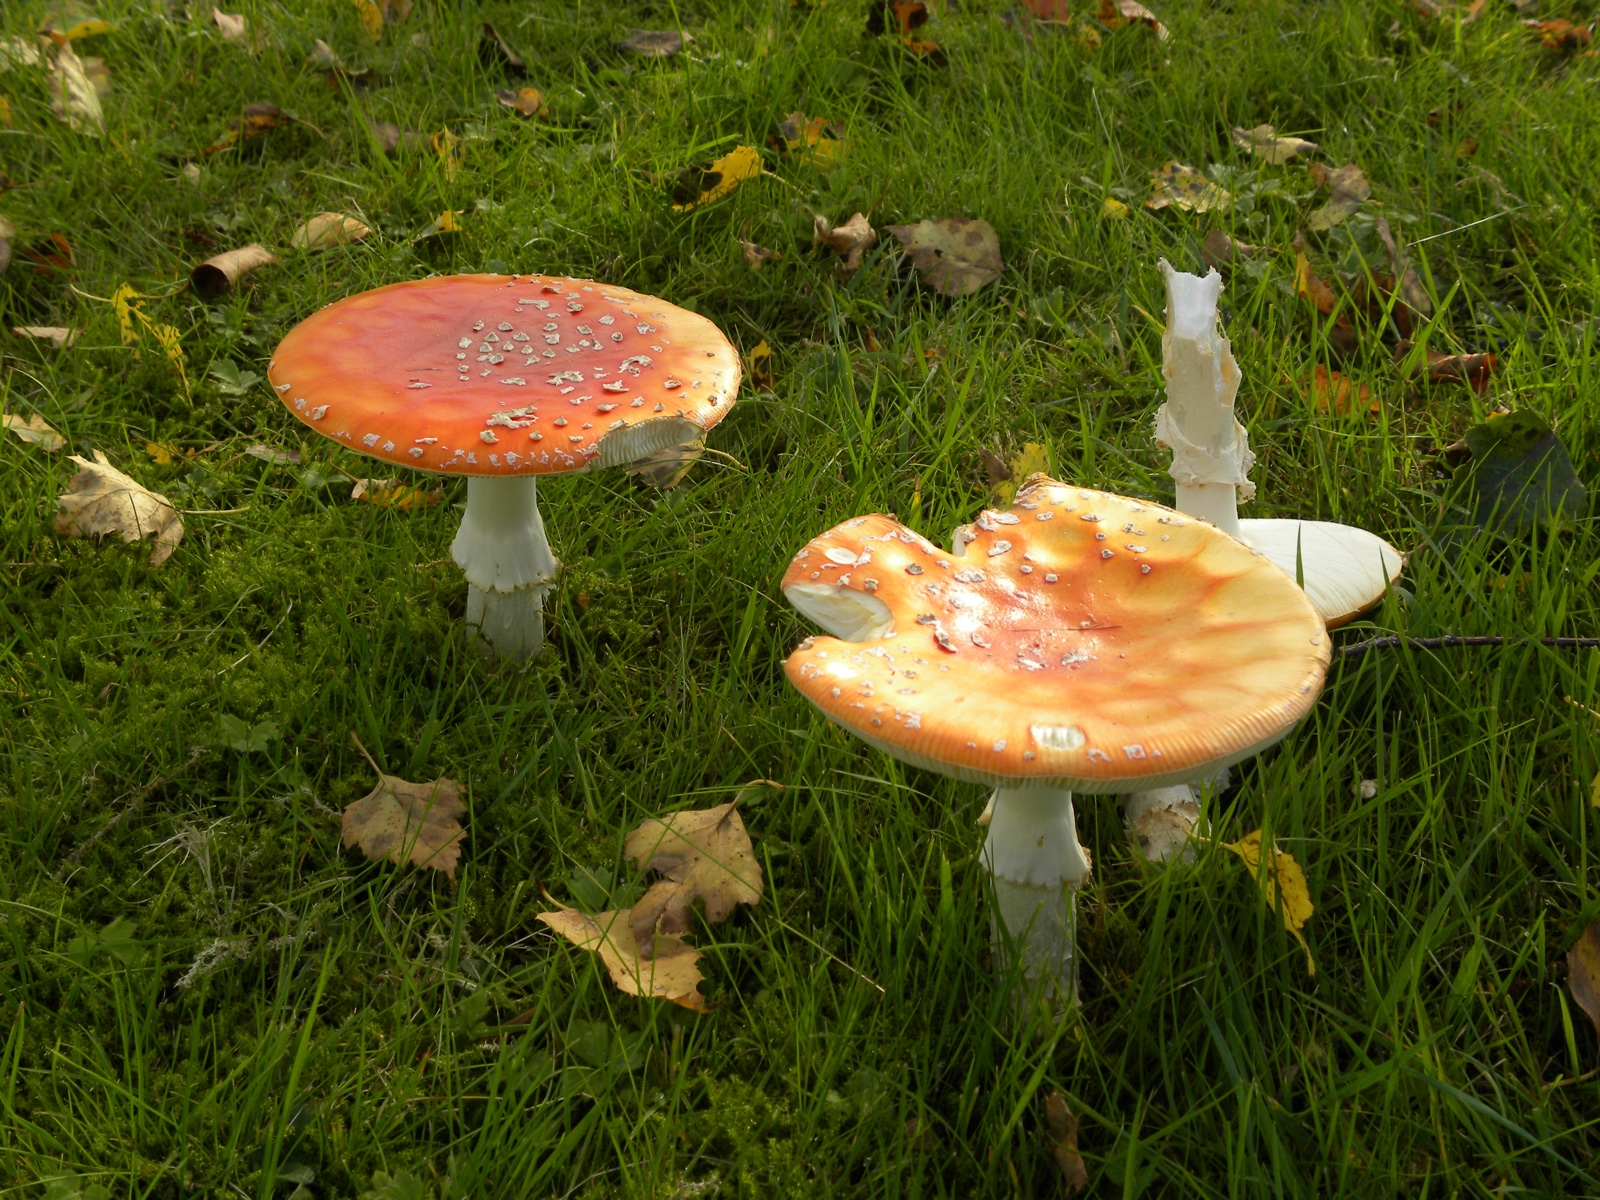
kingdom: Fungi
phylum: Basidiomycota
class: Agaricomycetes
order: Agaricales
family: Amanitaceae
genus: Amanita
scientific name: Amanita muscaria
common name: rød fluesvamp
